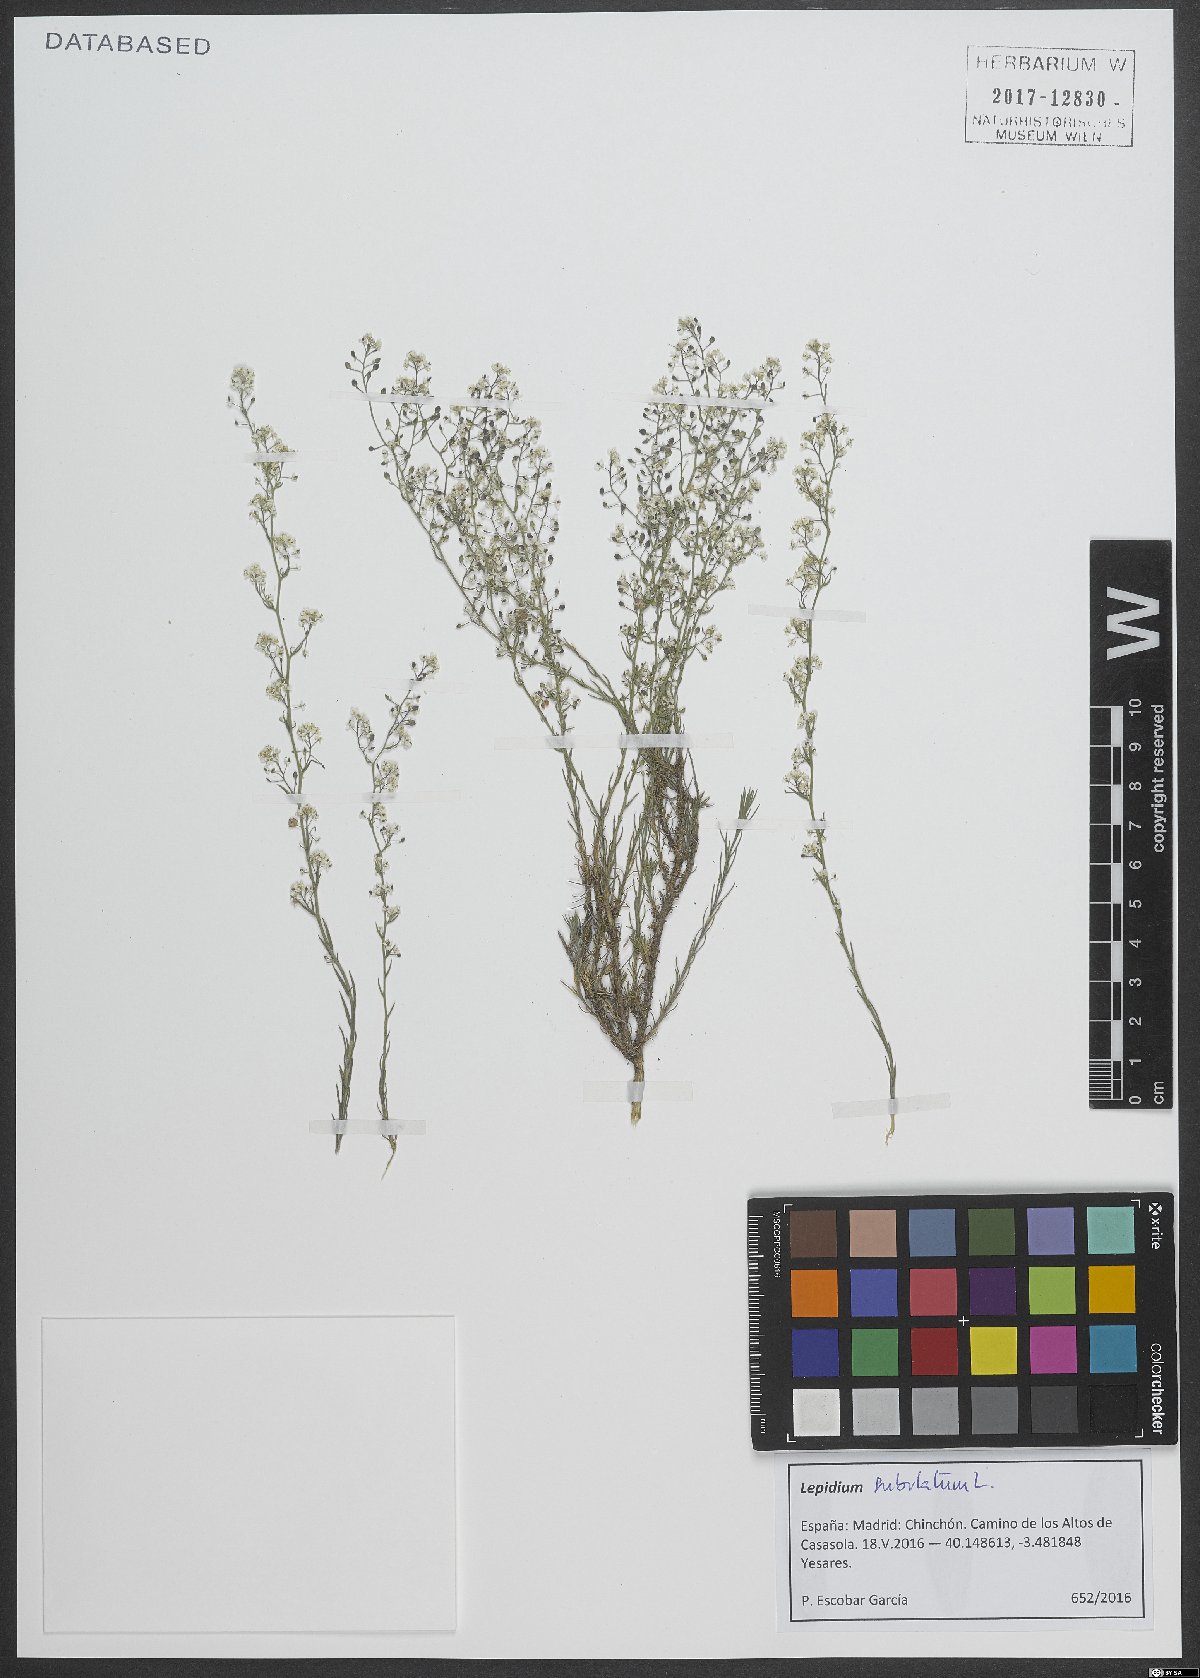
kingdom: Plantae
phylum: Tracheophyta
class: Magnoliopsida
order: Brassicales
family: Brassicaceae
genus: Lepidium
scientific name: Lepidium subulatum
